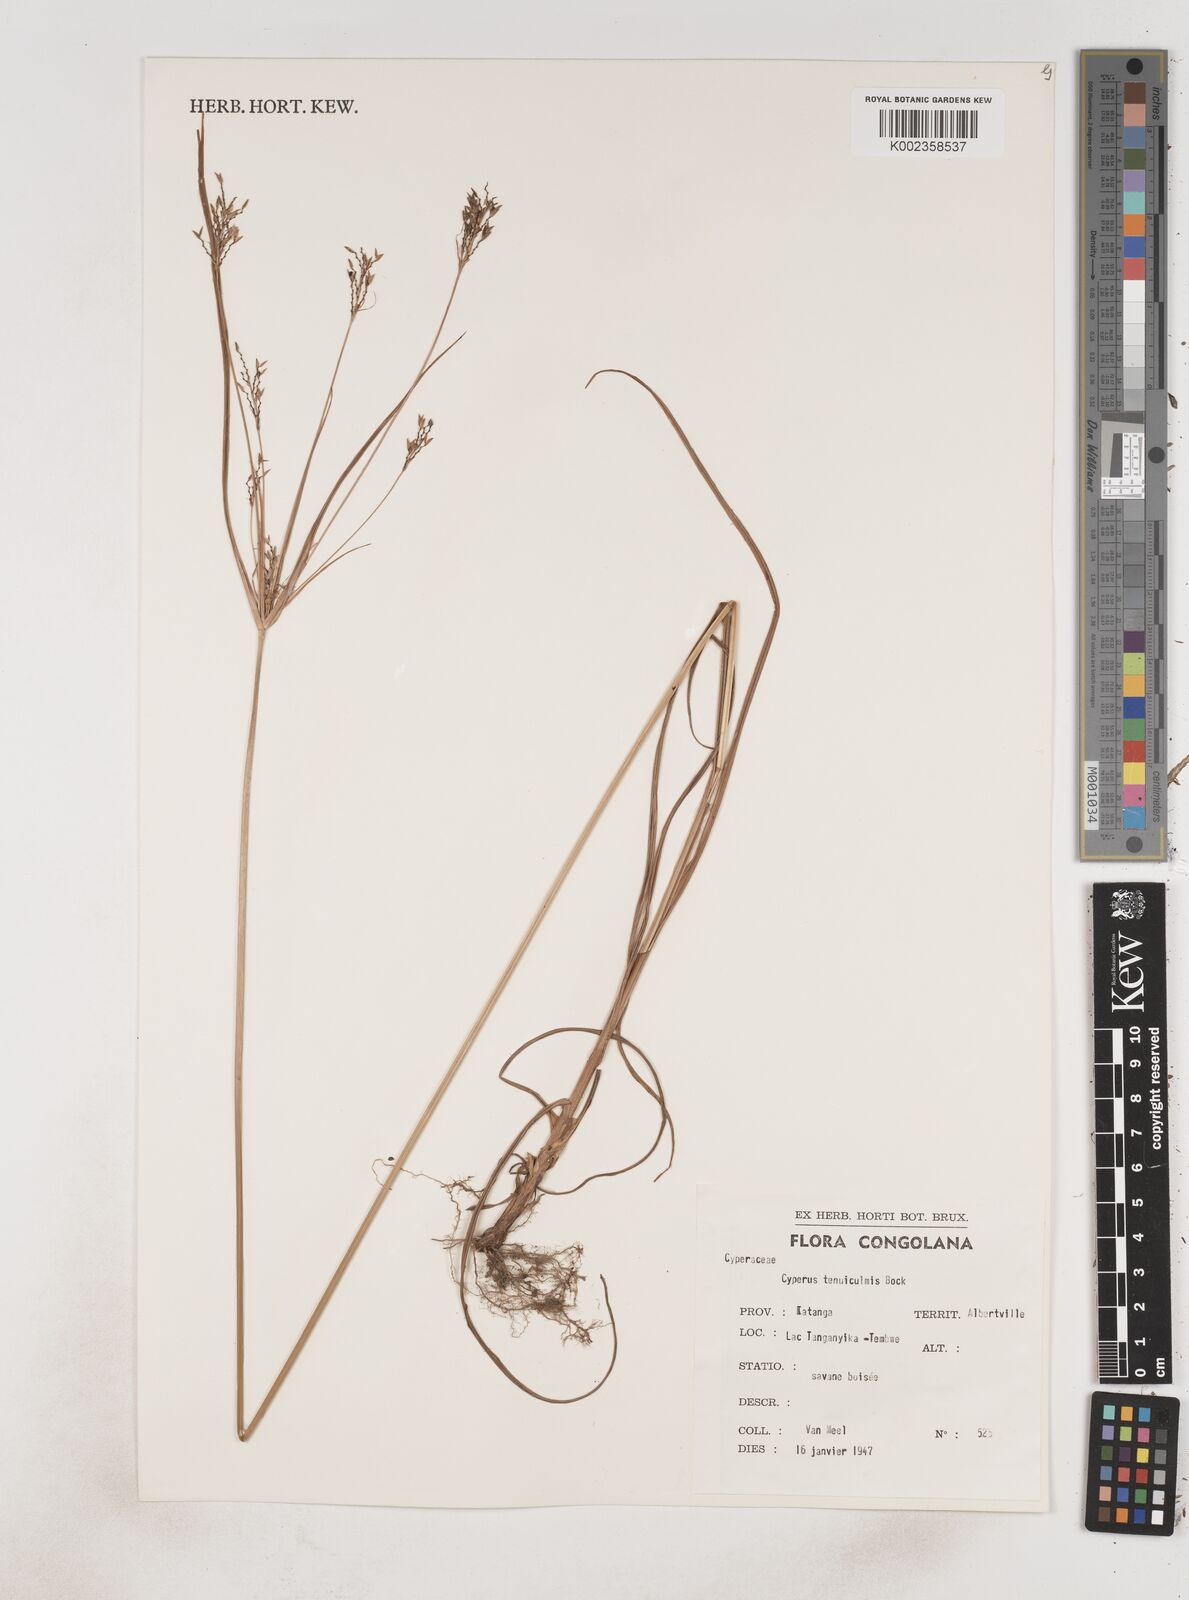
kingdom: Plantae
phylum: Tracheophyta
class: Liliopsida
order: Poales
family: Cyperaceae
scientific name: Cyperaceae
